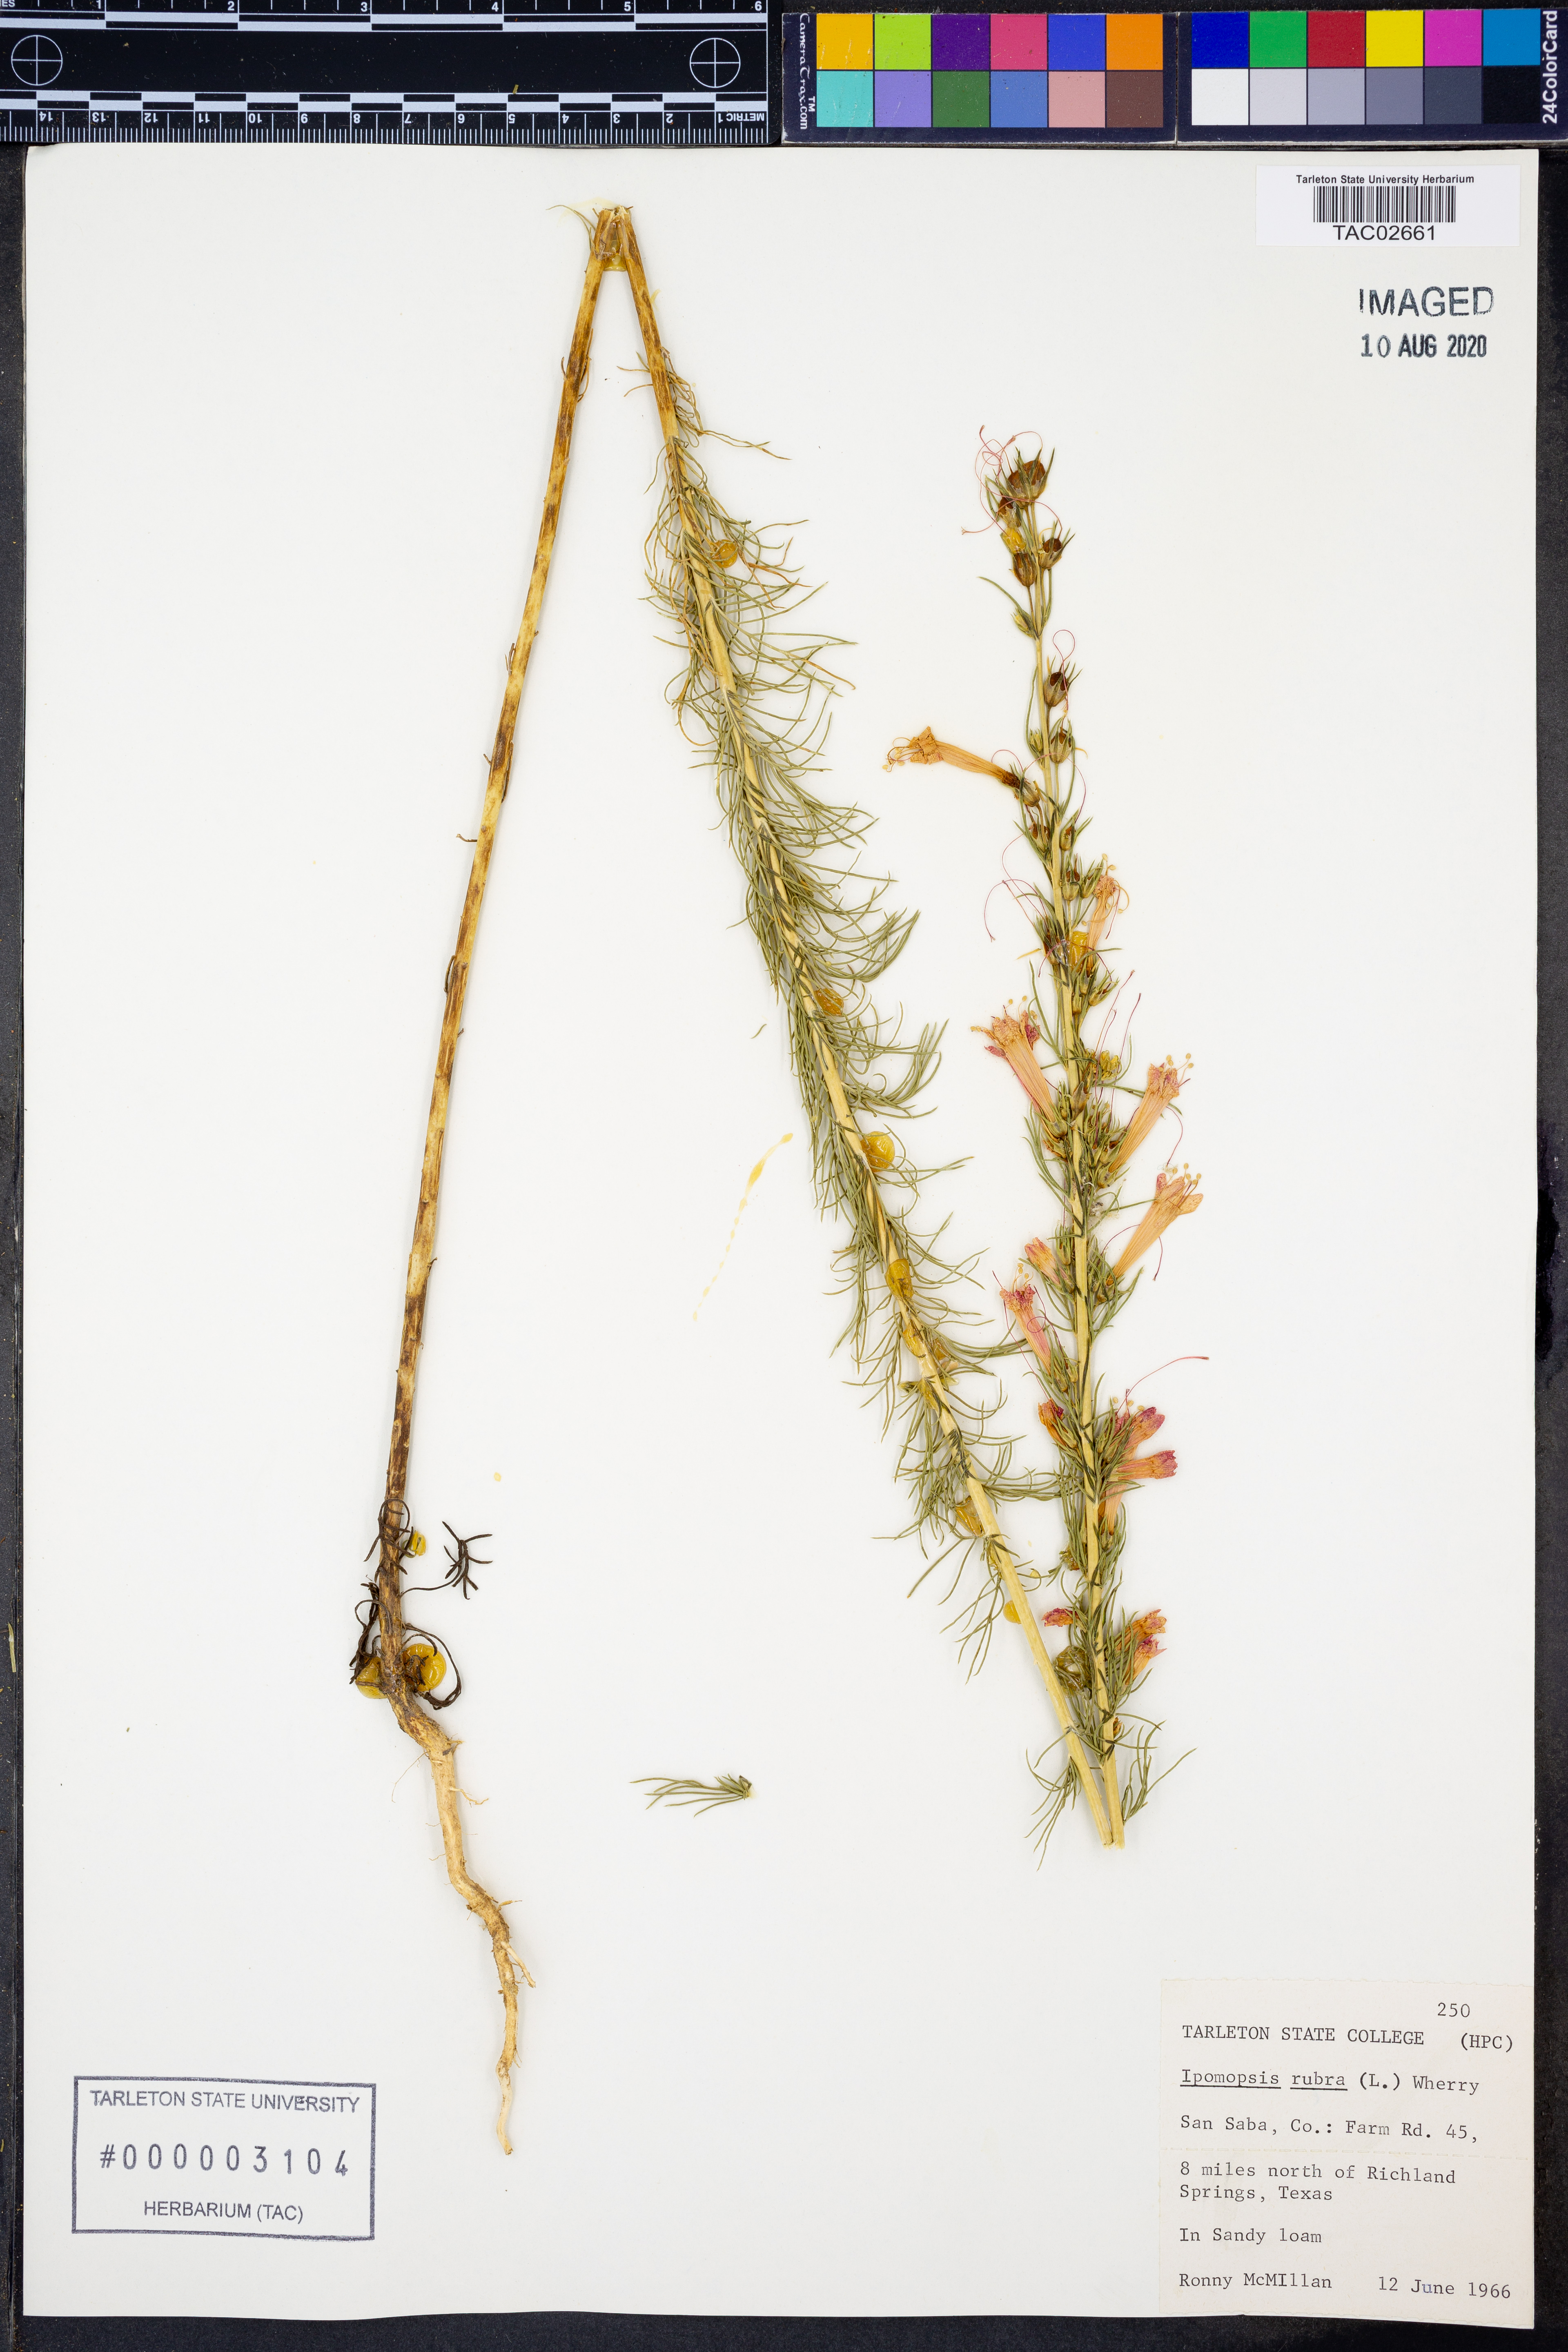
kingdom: Plantae
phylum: Tracheophyta
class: Magnoliopsida
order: Ericales
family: Polemoniaceae
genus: Ipomopsis
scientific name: Ipomopsis rubra
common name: Skyrocket
